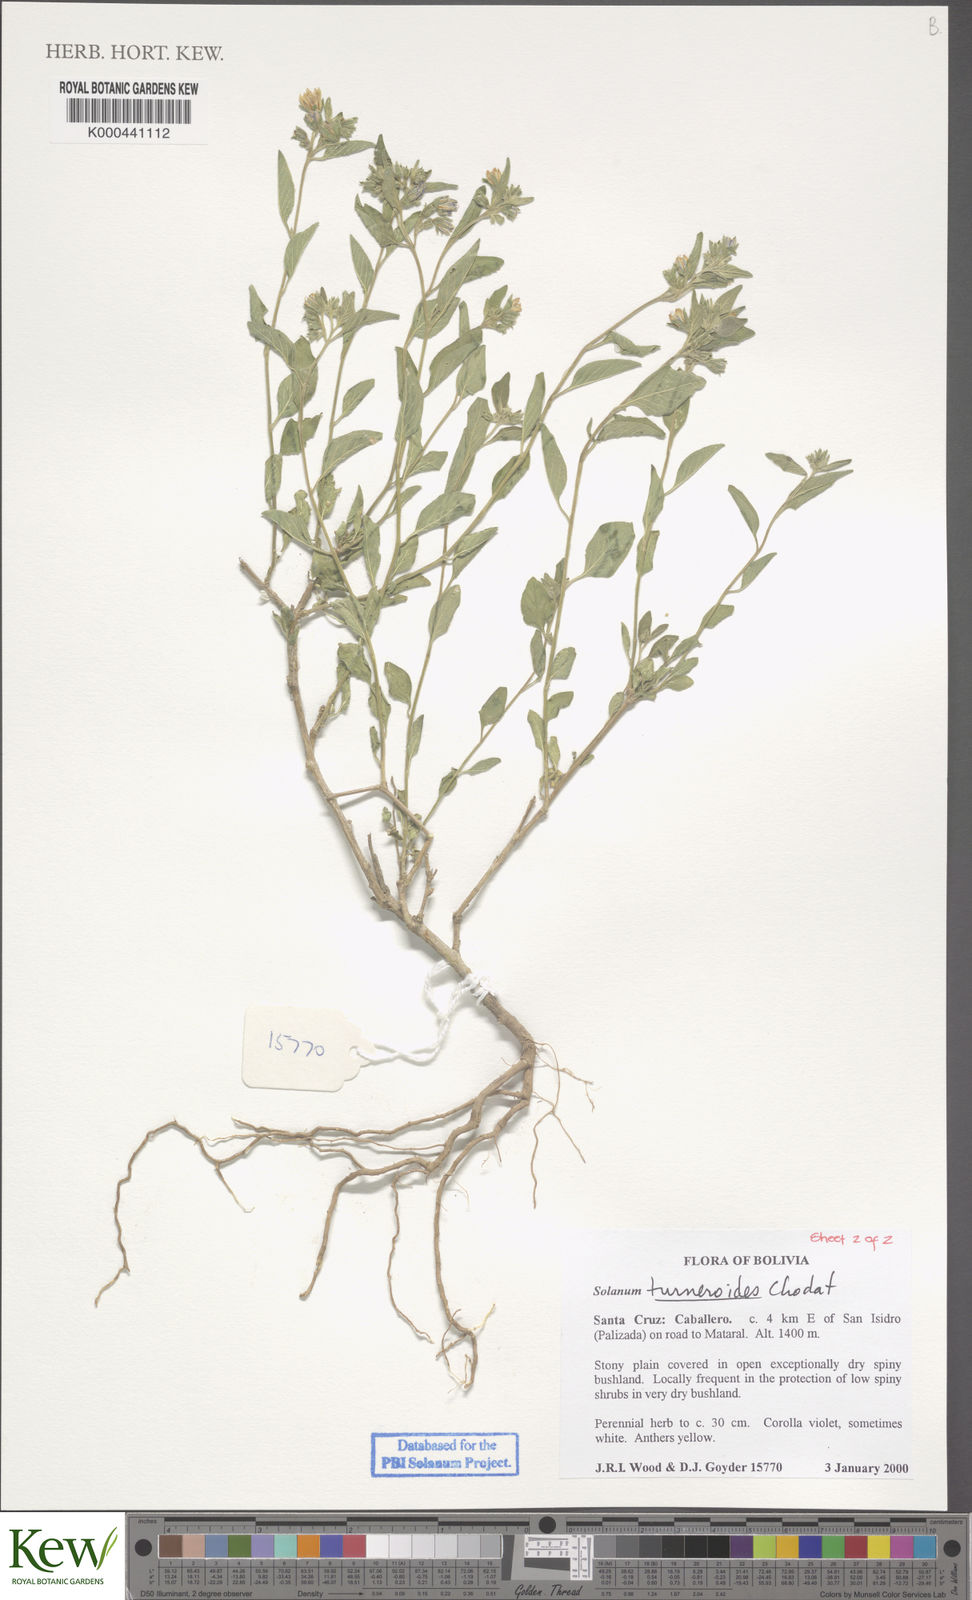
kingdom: Plantae
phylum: Tracheophyta
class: Magnoliopsida
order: Solanales
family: Solanaceae
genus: Solanum
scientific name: Solanum turneroides
